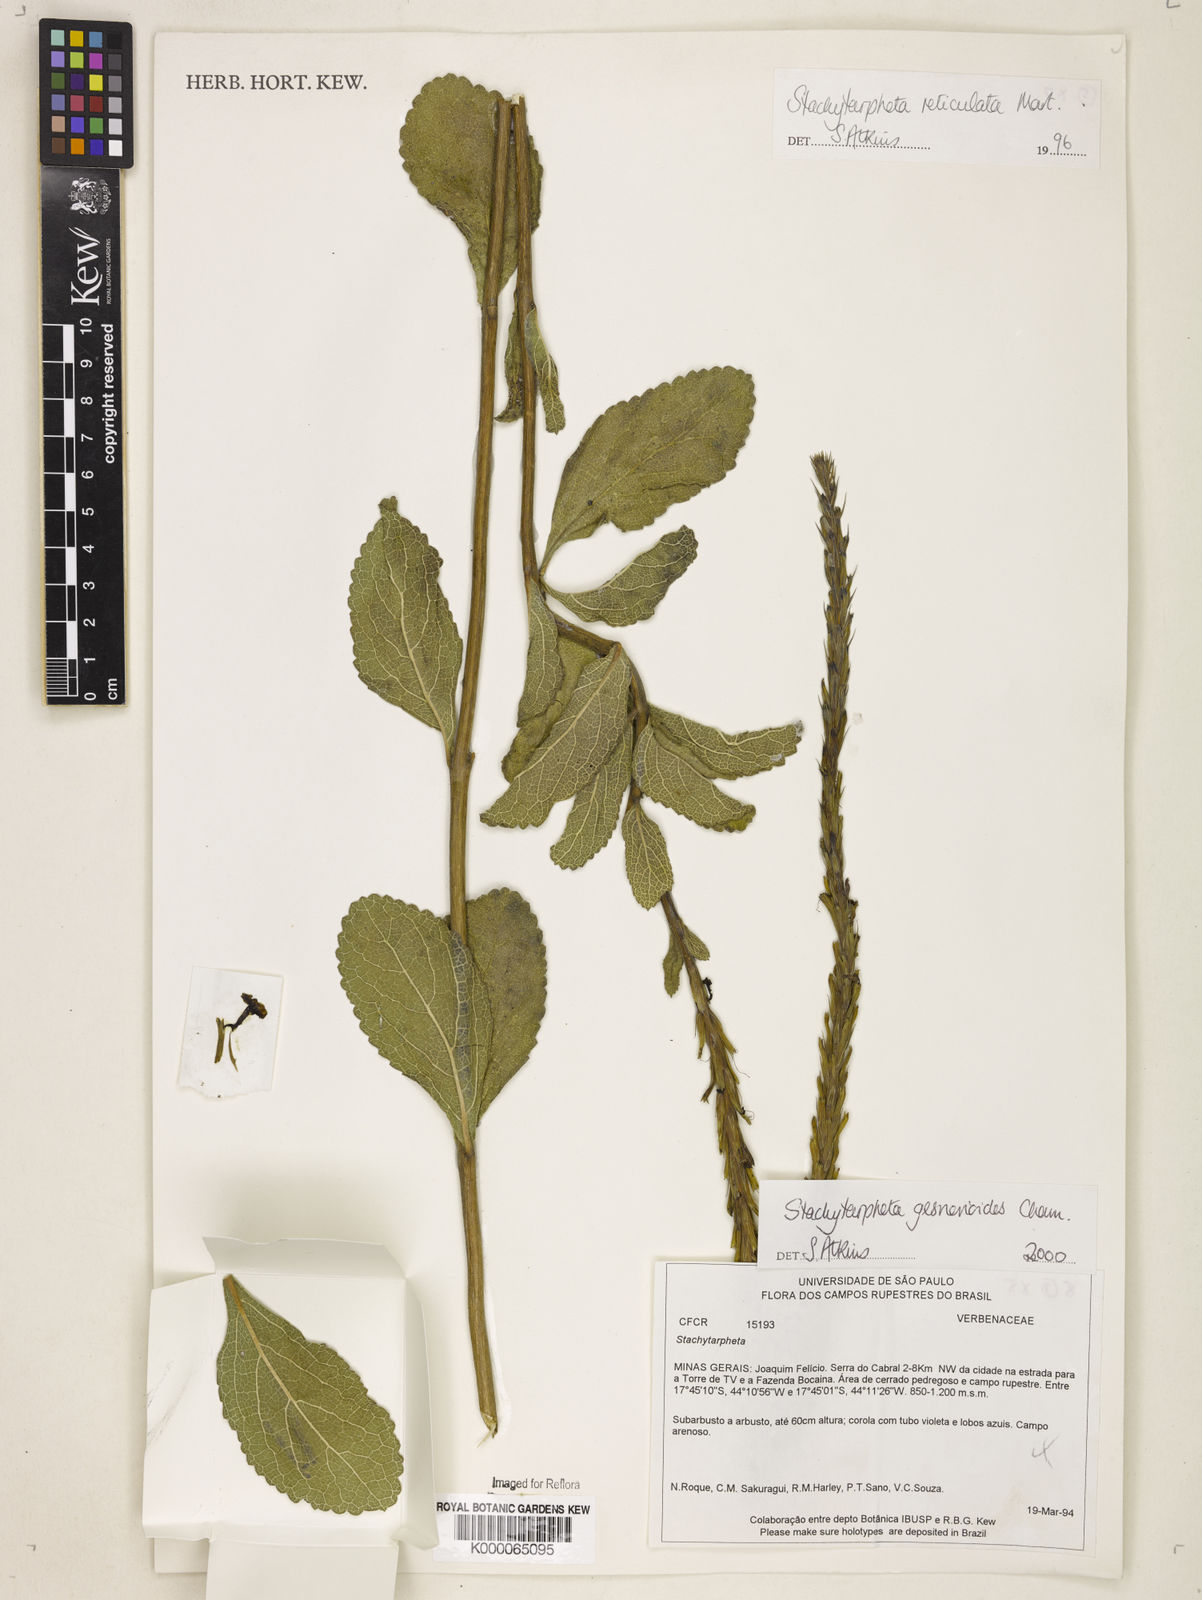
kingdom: Plantae
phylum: Tracheophyta
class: Magnoliopsida
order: Lamiales
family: Verbenaceae
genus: Stachytarpheta
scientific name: Stachytarpheta gesnerioides
